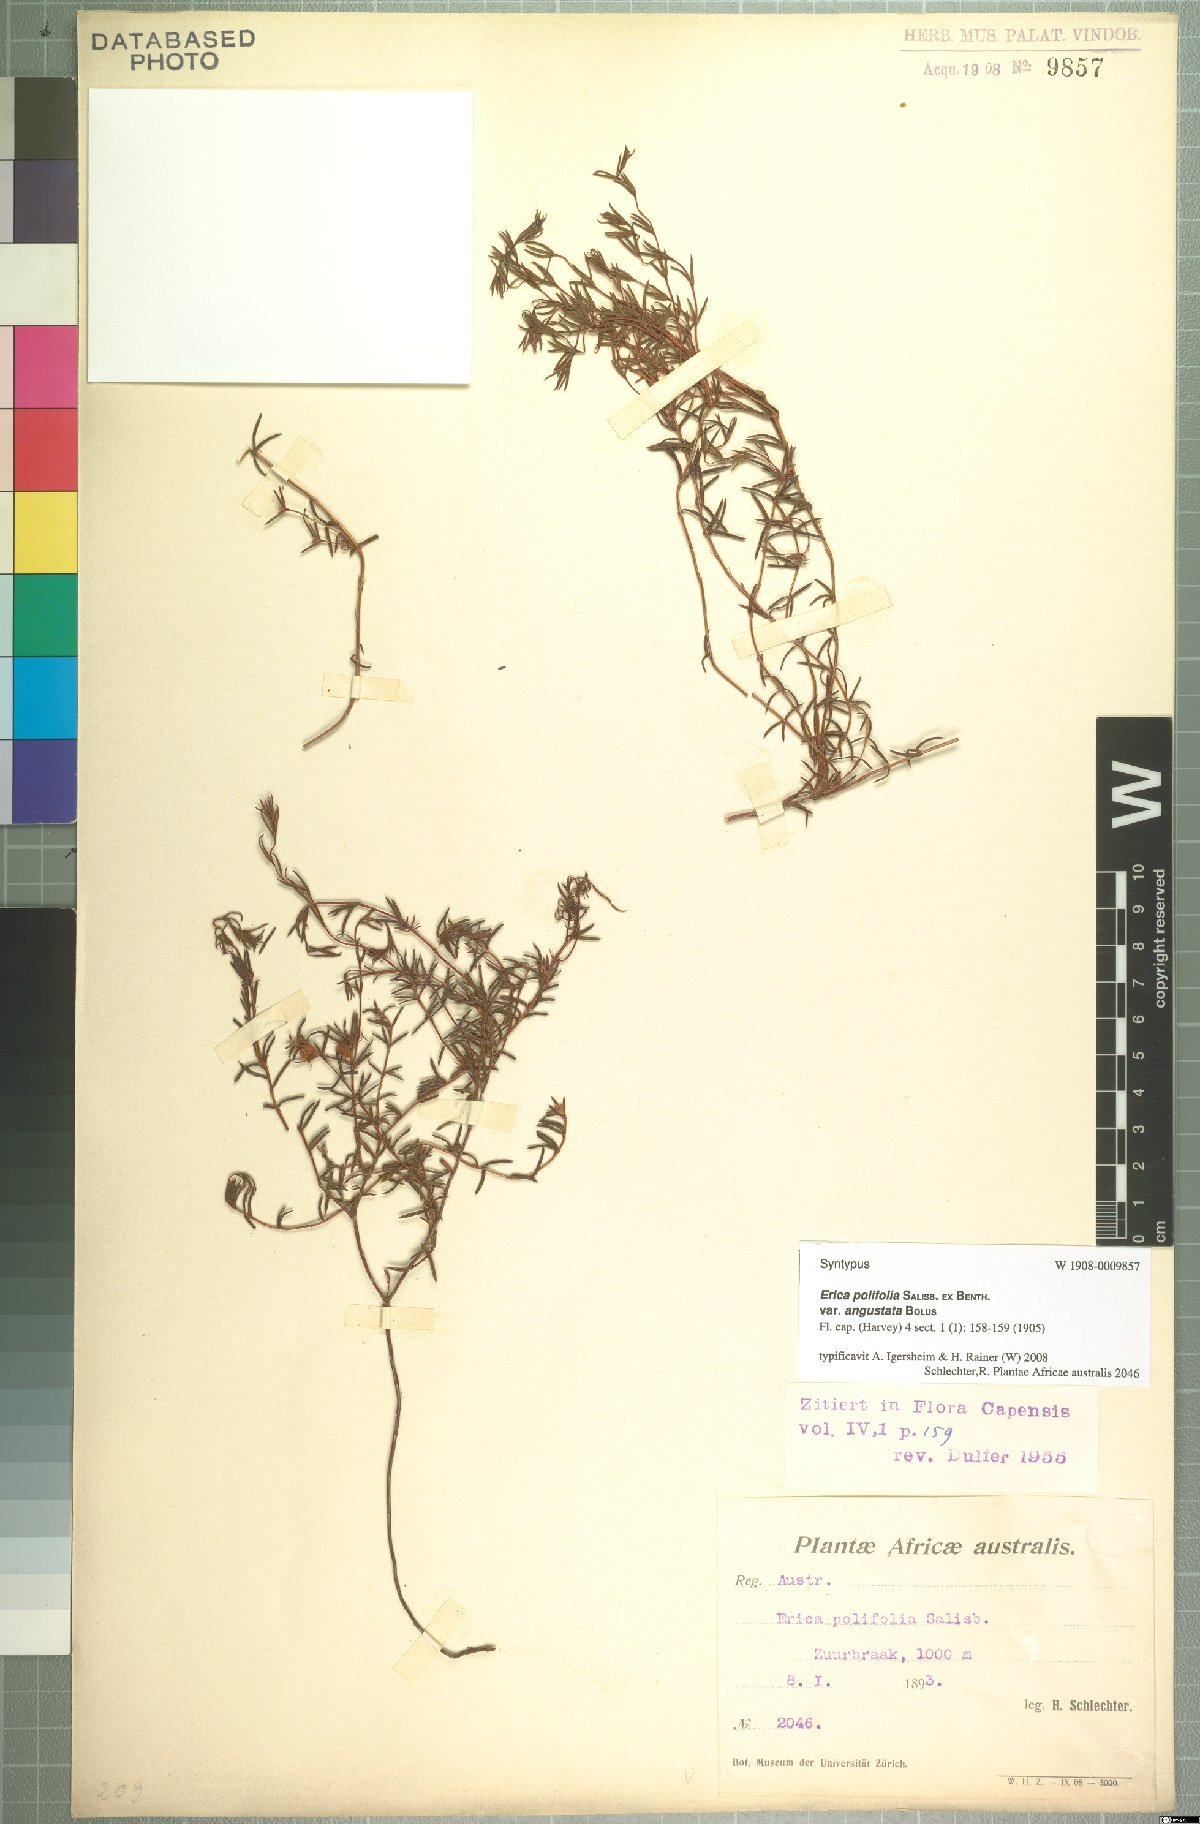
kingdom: Plantae
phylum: Tracheophyta
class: Magnoliopsida
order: Ericales
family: Ericaceae
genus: Erica
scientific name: Erica polifolia
